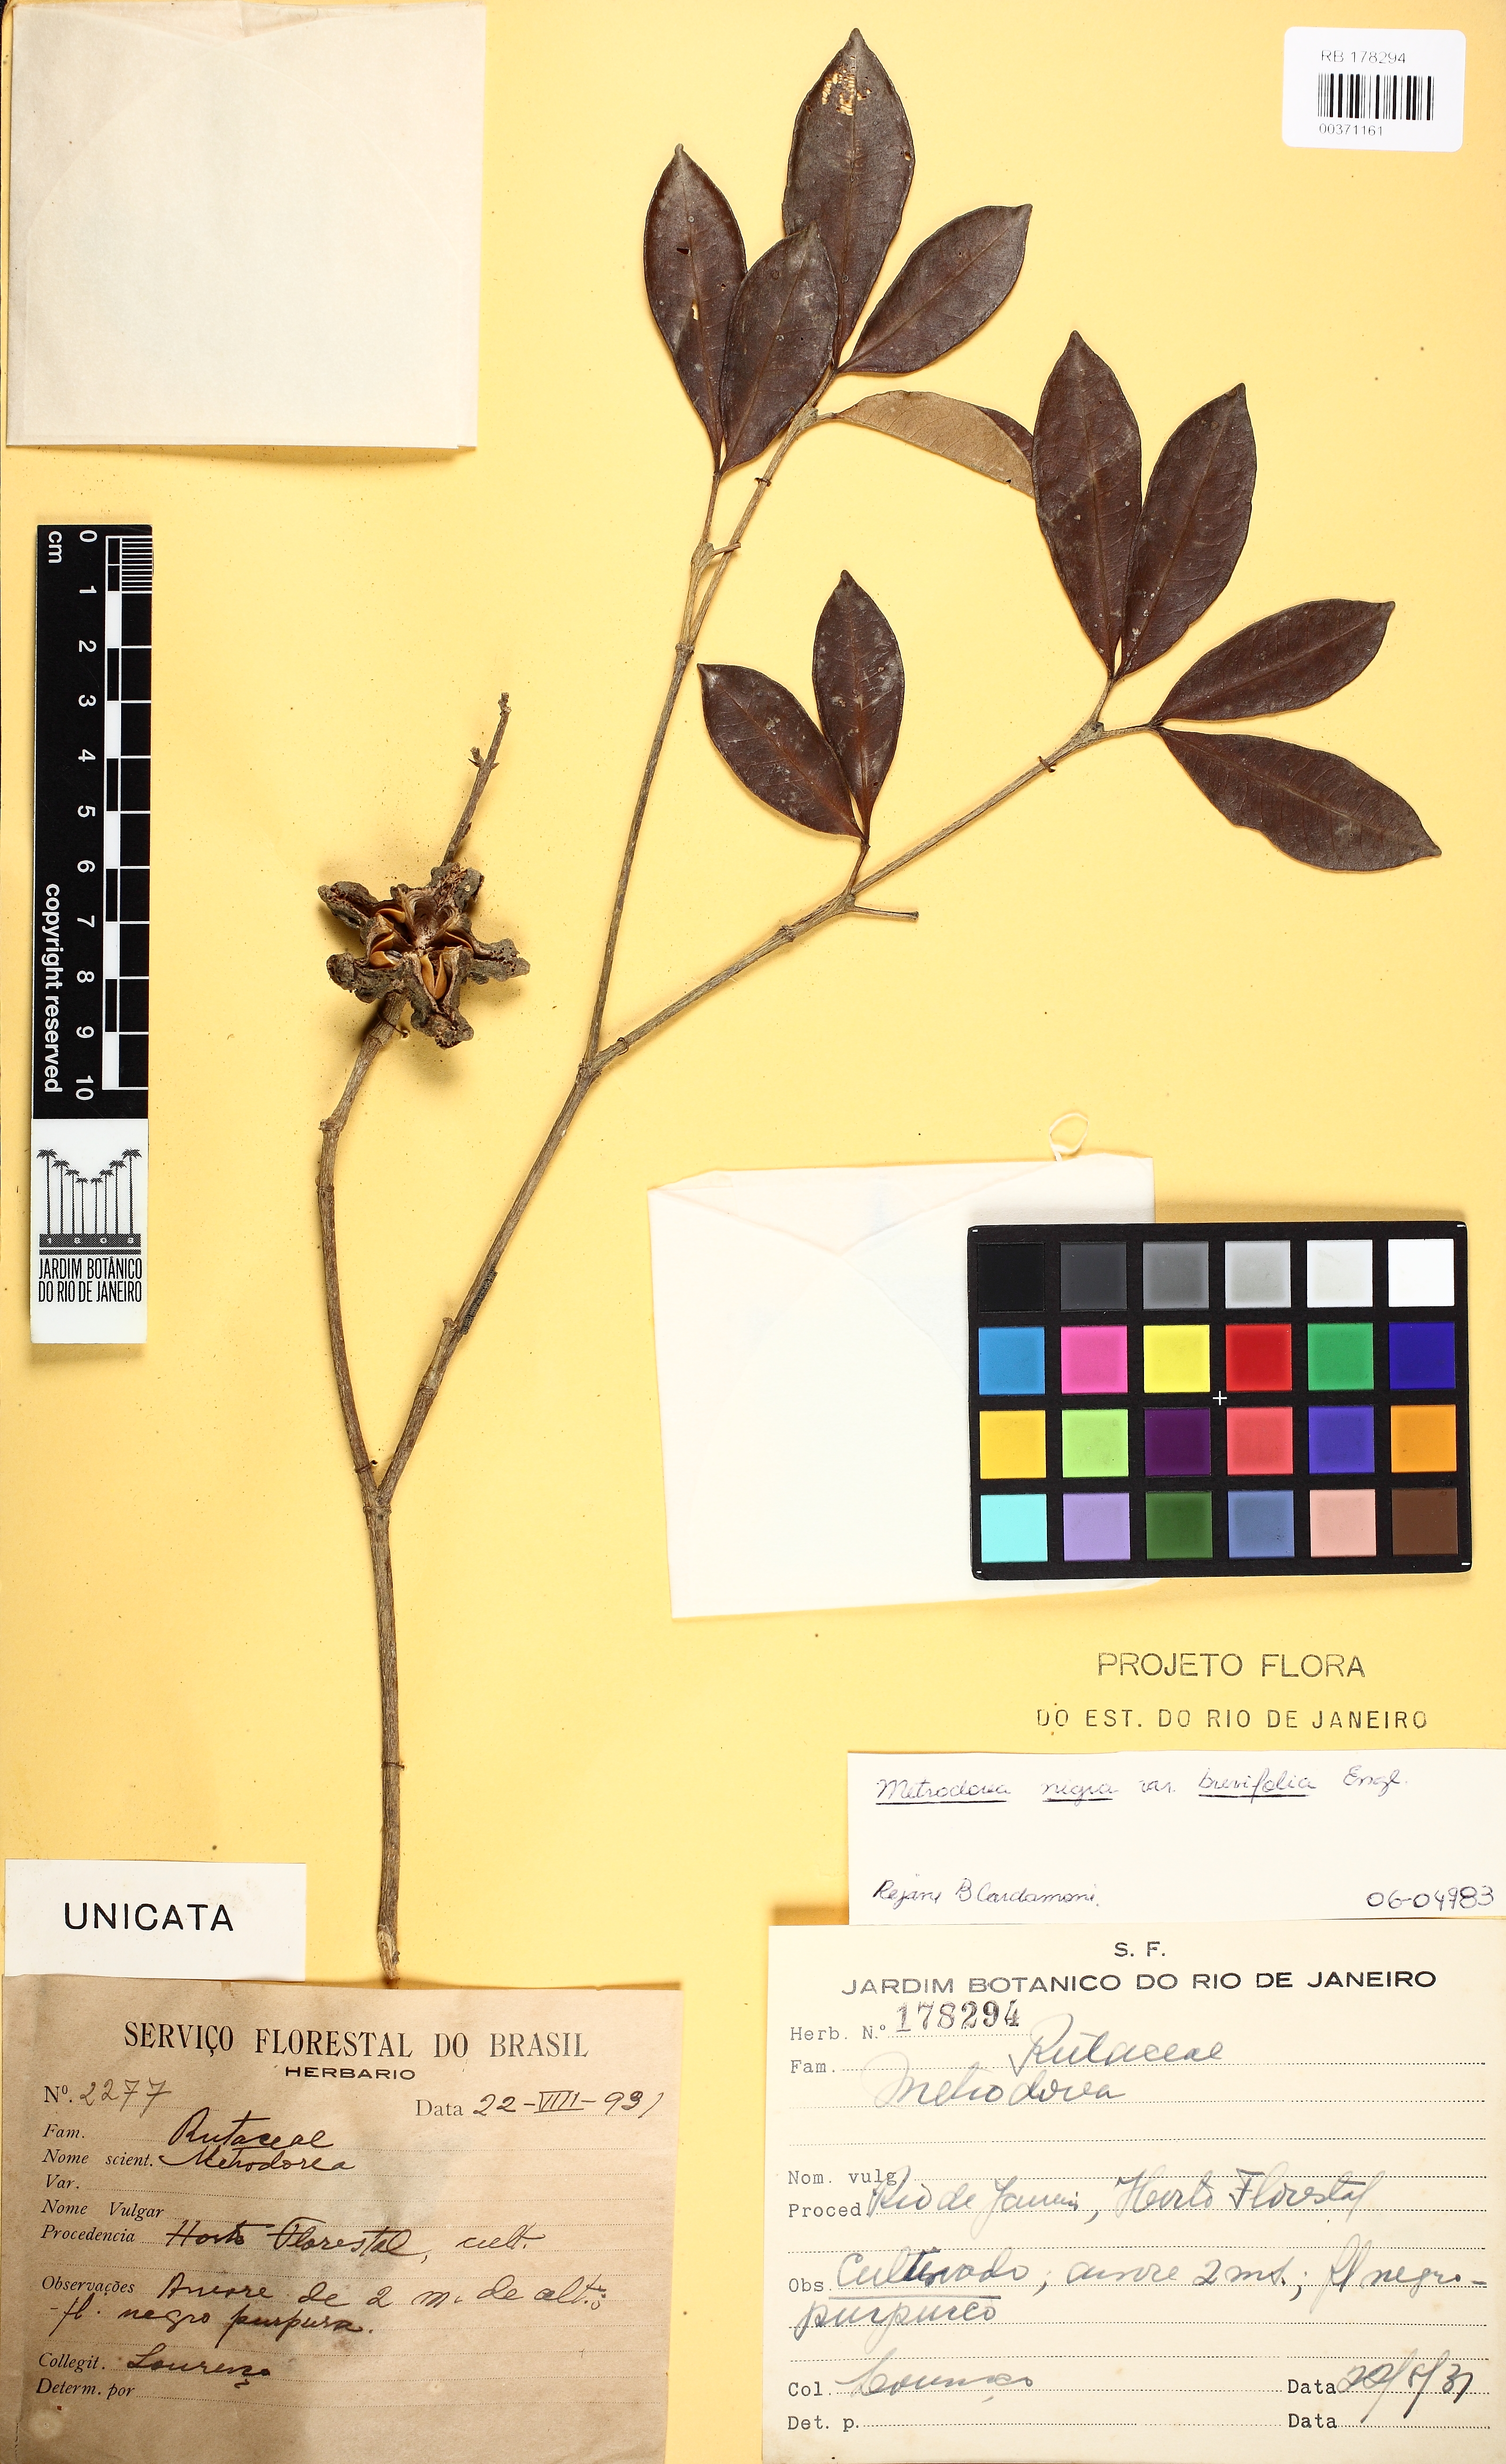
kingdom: Plantae
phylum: Tracheophyta
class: Magnoliopsida
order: Sapindales
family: Rutaceae
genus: Metrodorea
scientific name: Metrodorea
